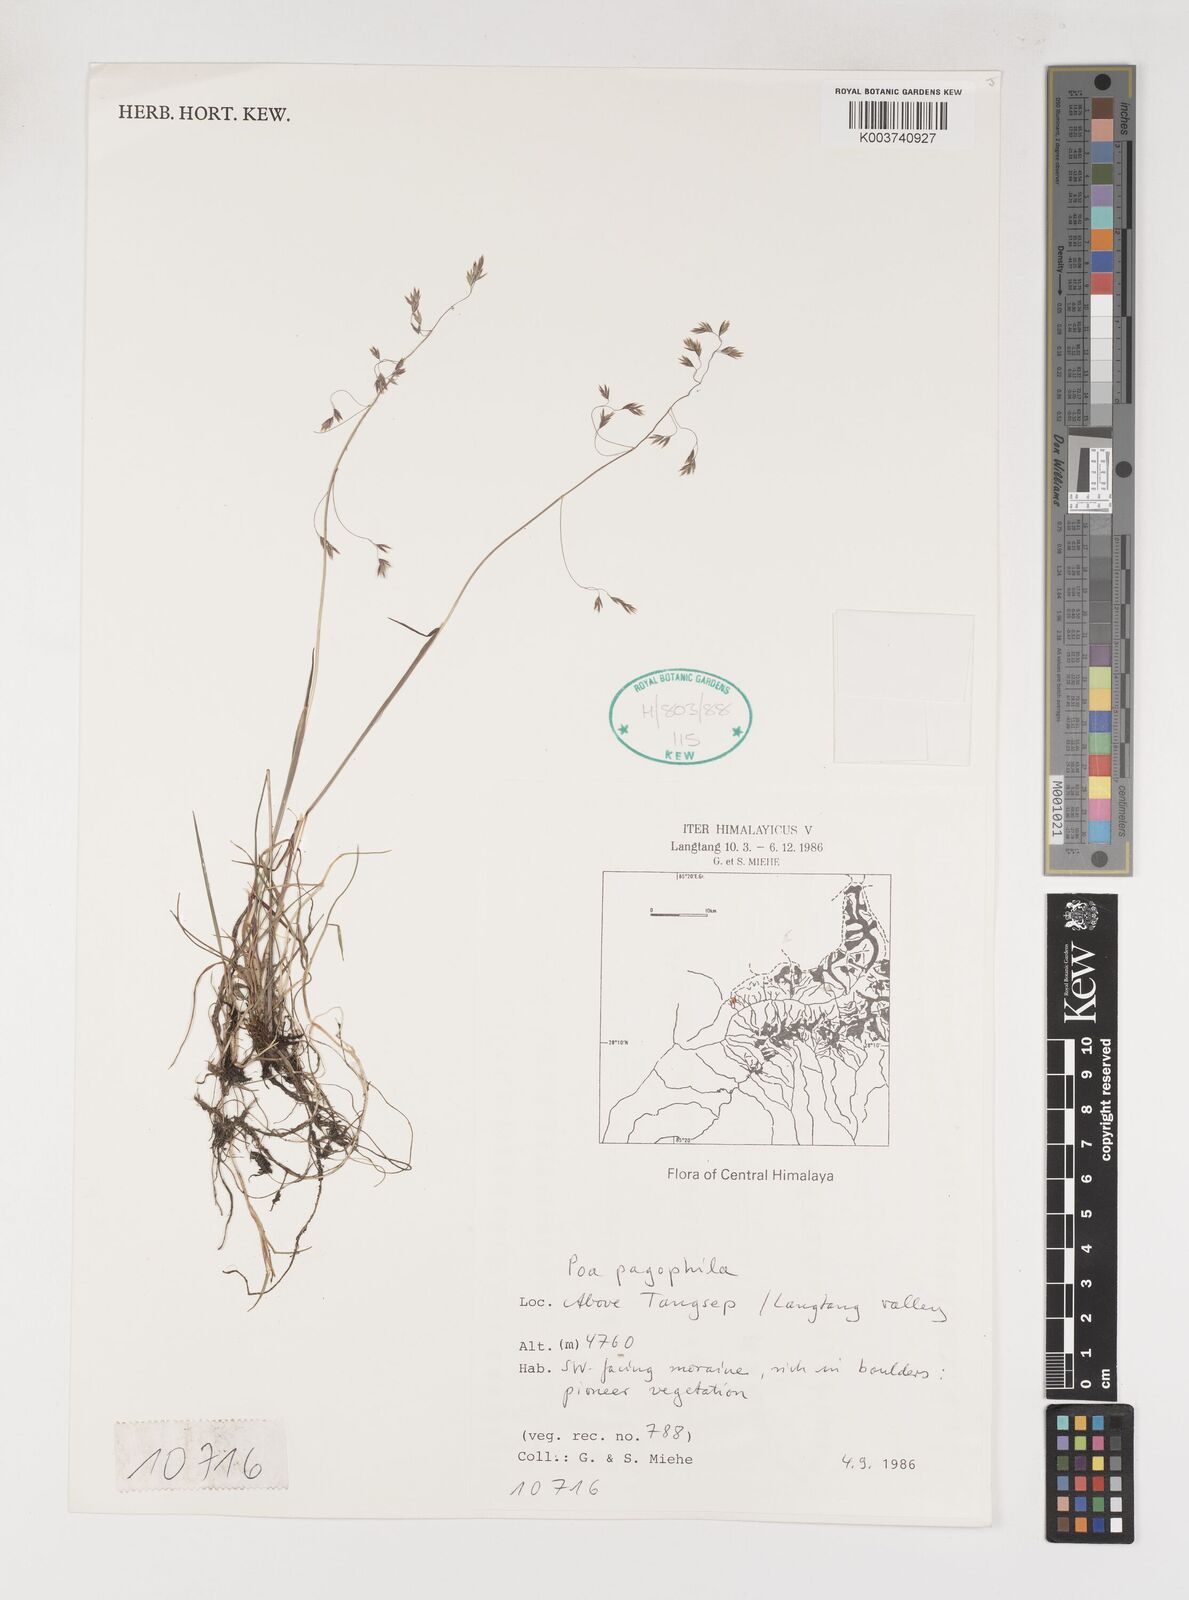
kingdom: Plantae
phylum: Tracheophyta
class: Liliopsida
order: Poales
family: Poaceae
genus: Poa
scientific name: Poa pagophila
